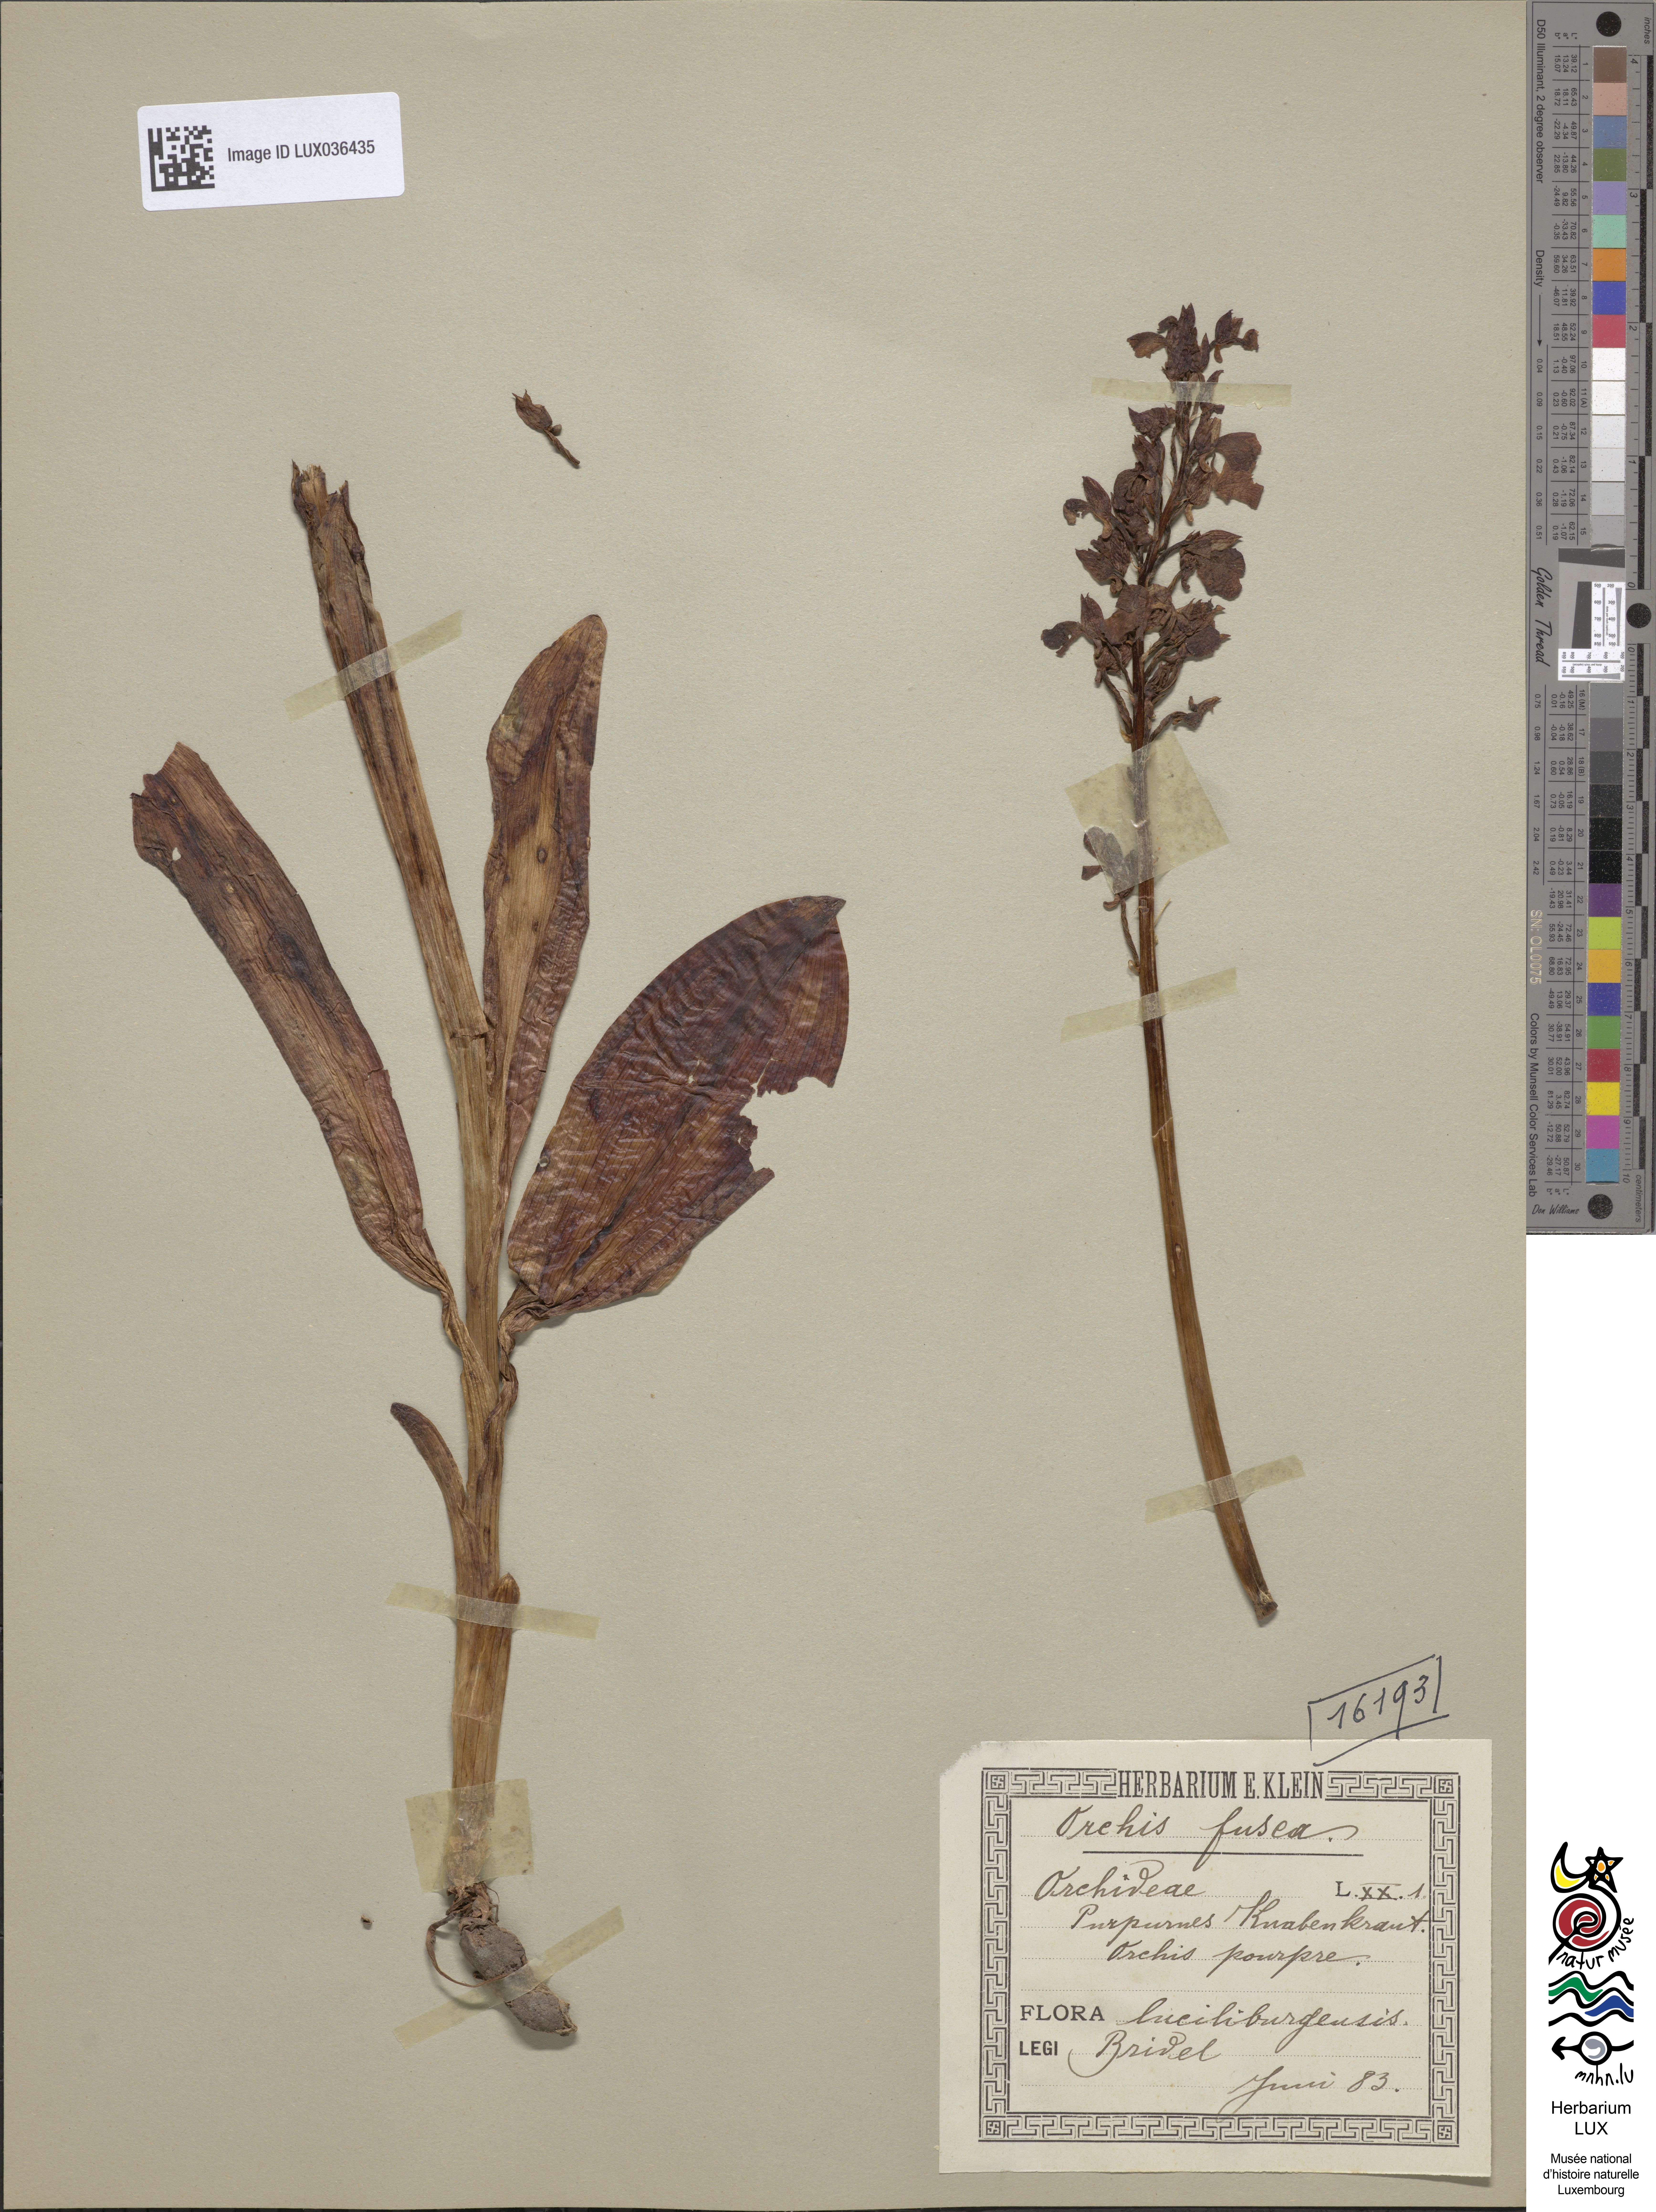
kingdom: Plantae
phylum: Tracheophyta
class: Liliopsida
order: Asparagales
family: Orchidaceae
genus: Orchis
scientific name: Orchis purpurea
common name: Lady orchid
